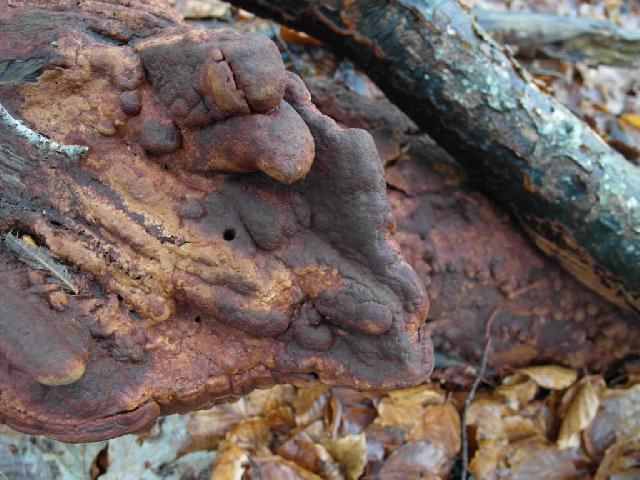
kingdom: Fungi
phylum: Basidiomycota
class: Agaricomycetes
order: Hymenochaetales
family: Hymenochaetaceae
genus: Fuscoporia
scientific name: Fuscoporia ferrea
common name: skorpe-ildporesvamp
